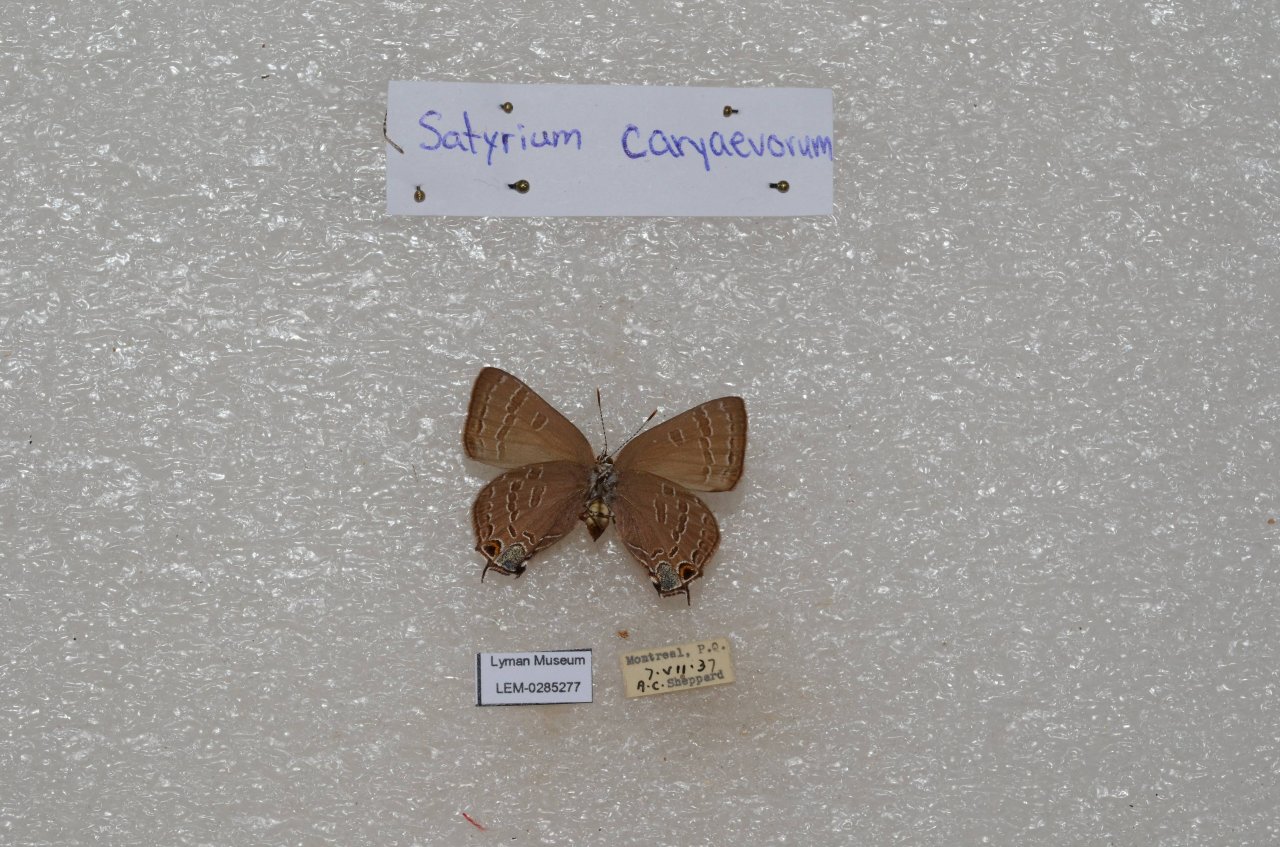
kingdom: Animalia
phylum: Arthropoda
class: Insecta
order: Lepidoptera
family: Lycaenidae
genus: Strymon
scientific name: Strymon caryaevorus
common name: Hickory Hairstreak
